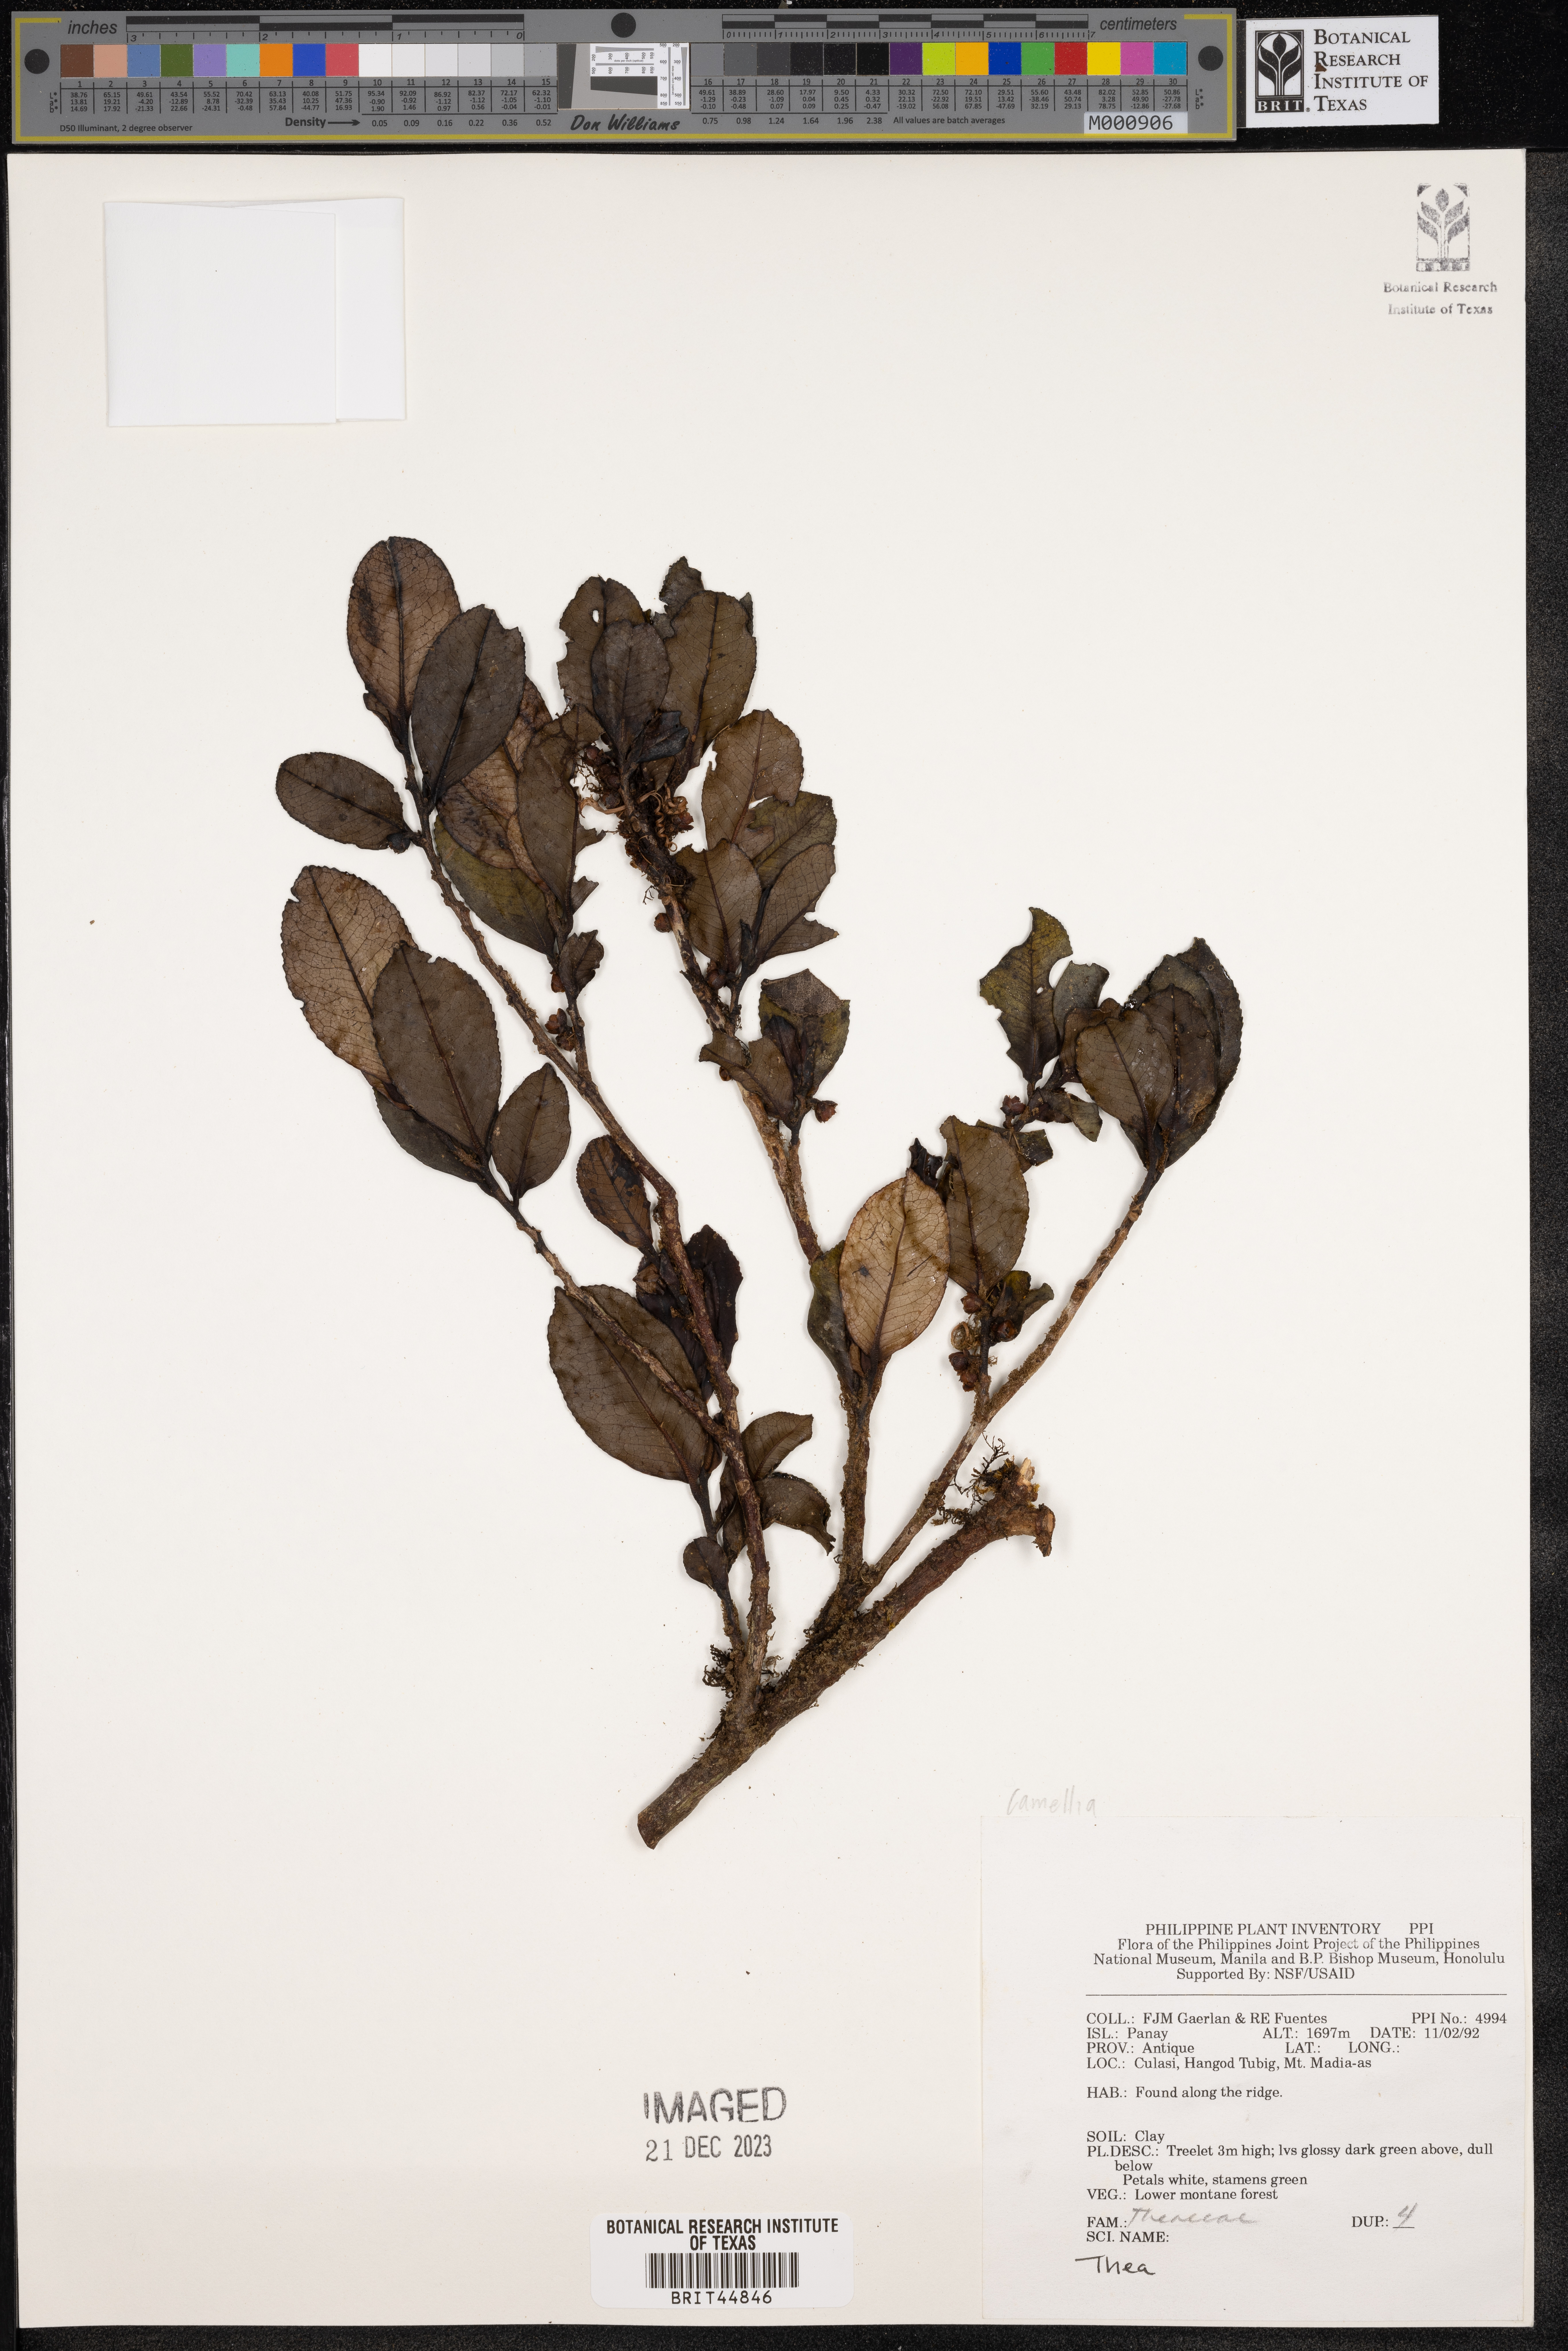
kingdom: Plantae
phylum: Tracheophyta
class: Magnoliopsida
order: Ericales
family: Theaceae
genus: Camellia
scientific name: Camellia
